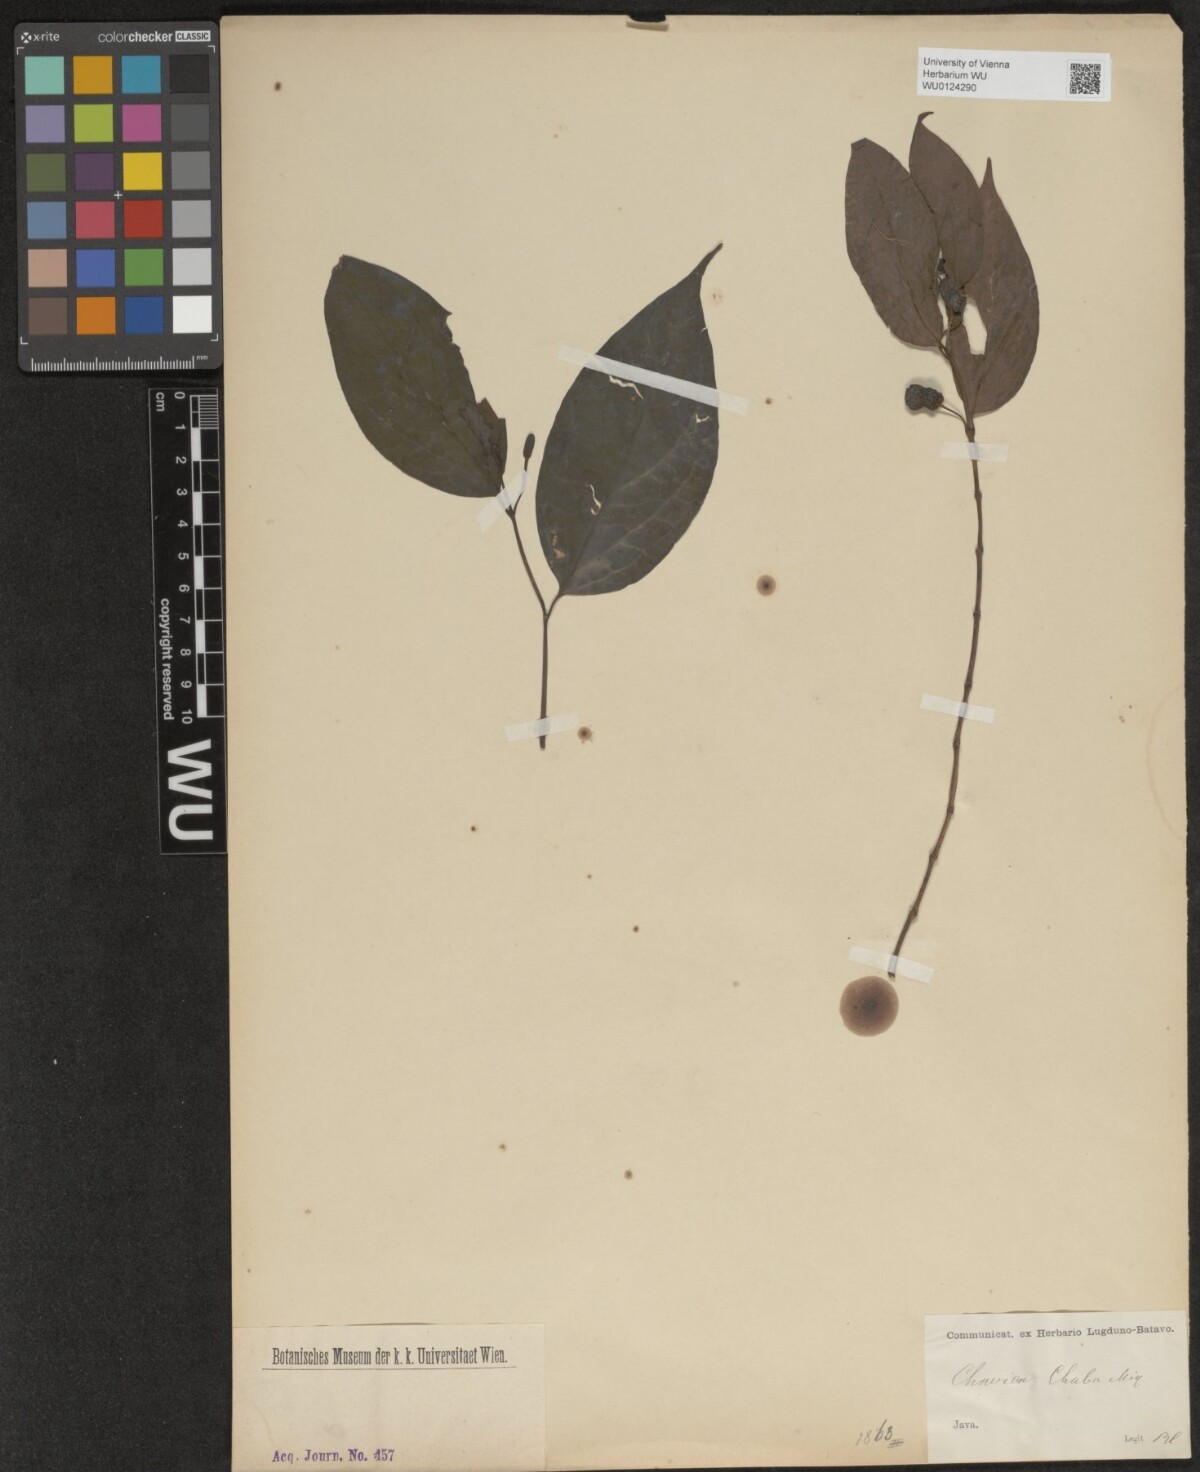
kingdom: Plantae
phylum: Tracheophyta
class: Magnoliopsida
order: Piperales
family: Piperaceae
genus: Piper
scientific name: Piper retrofractum
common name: Javanese long pepper
